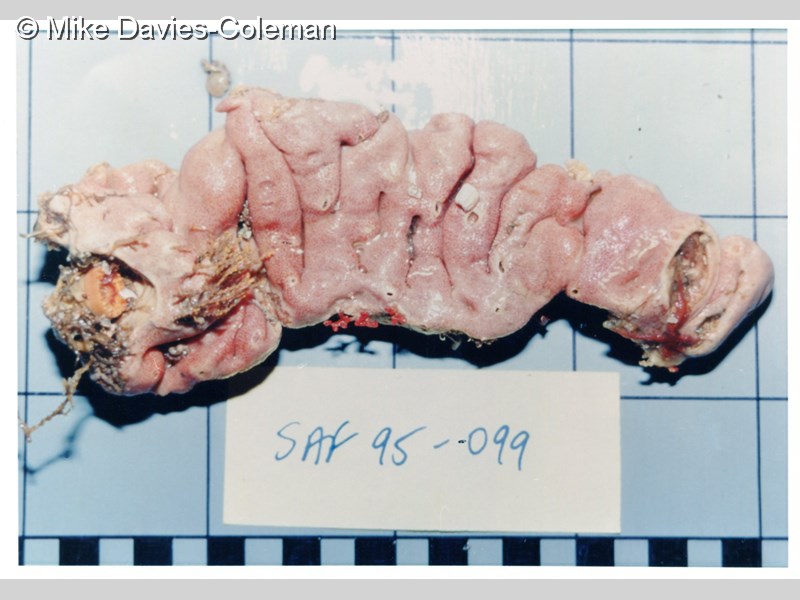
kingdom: Animalia
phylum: Chordata
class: Ascidiacea
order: Aplousobranchia
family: Didemnidae
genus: Atriolum
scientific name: Atriolum
